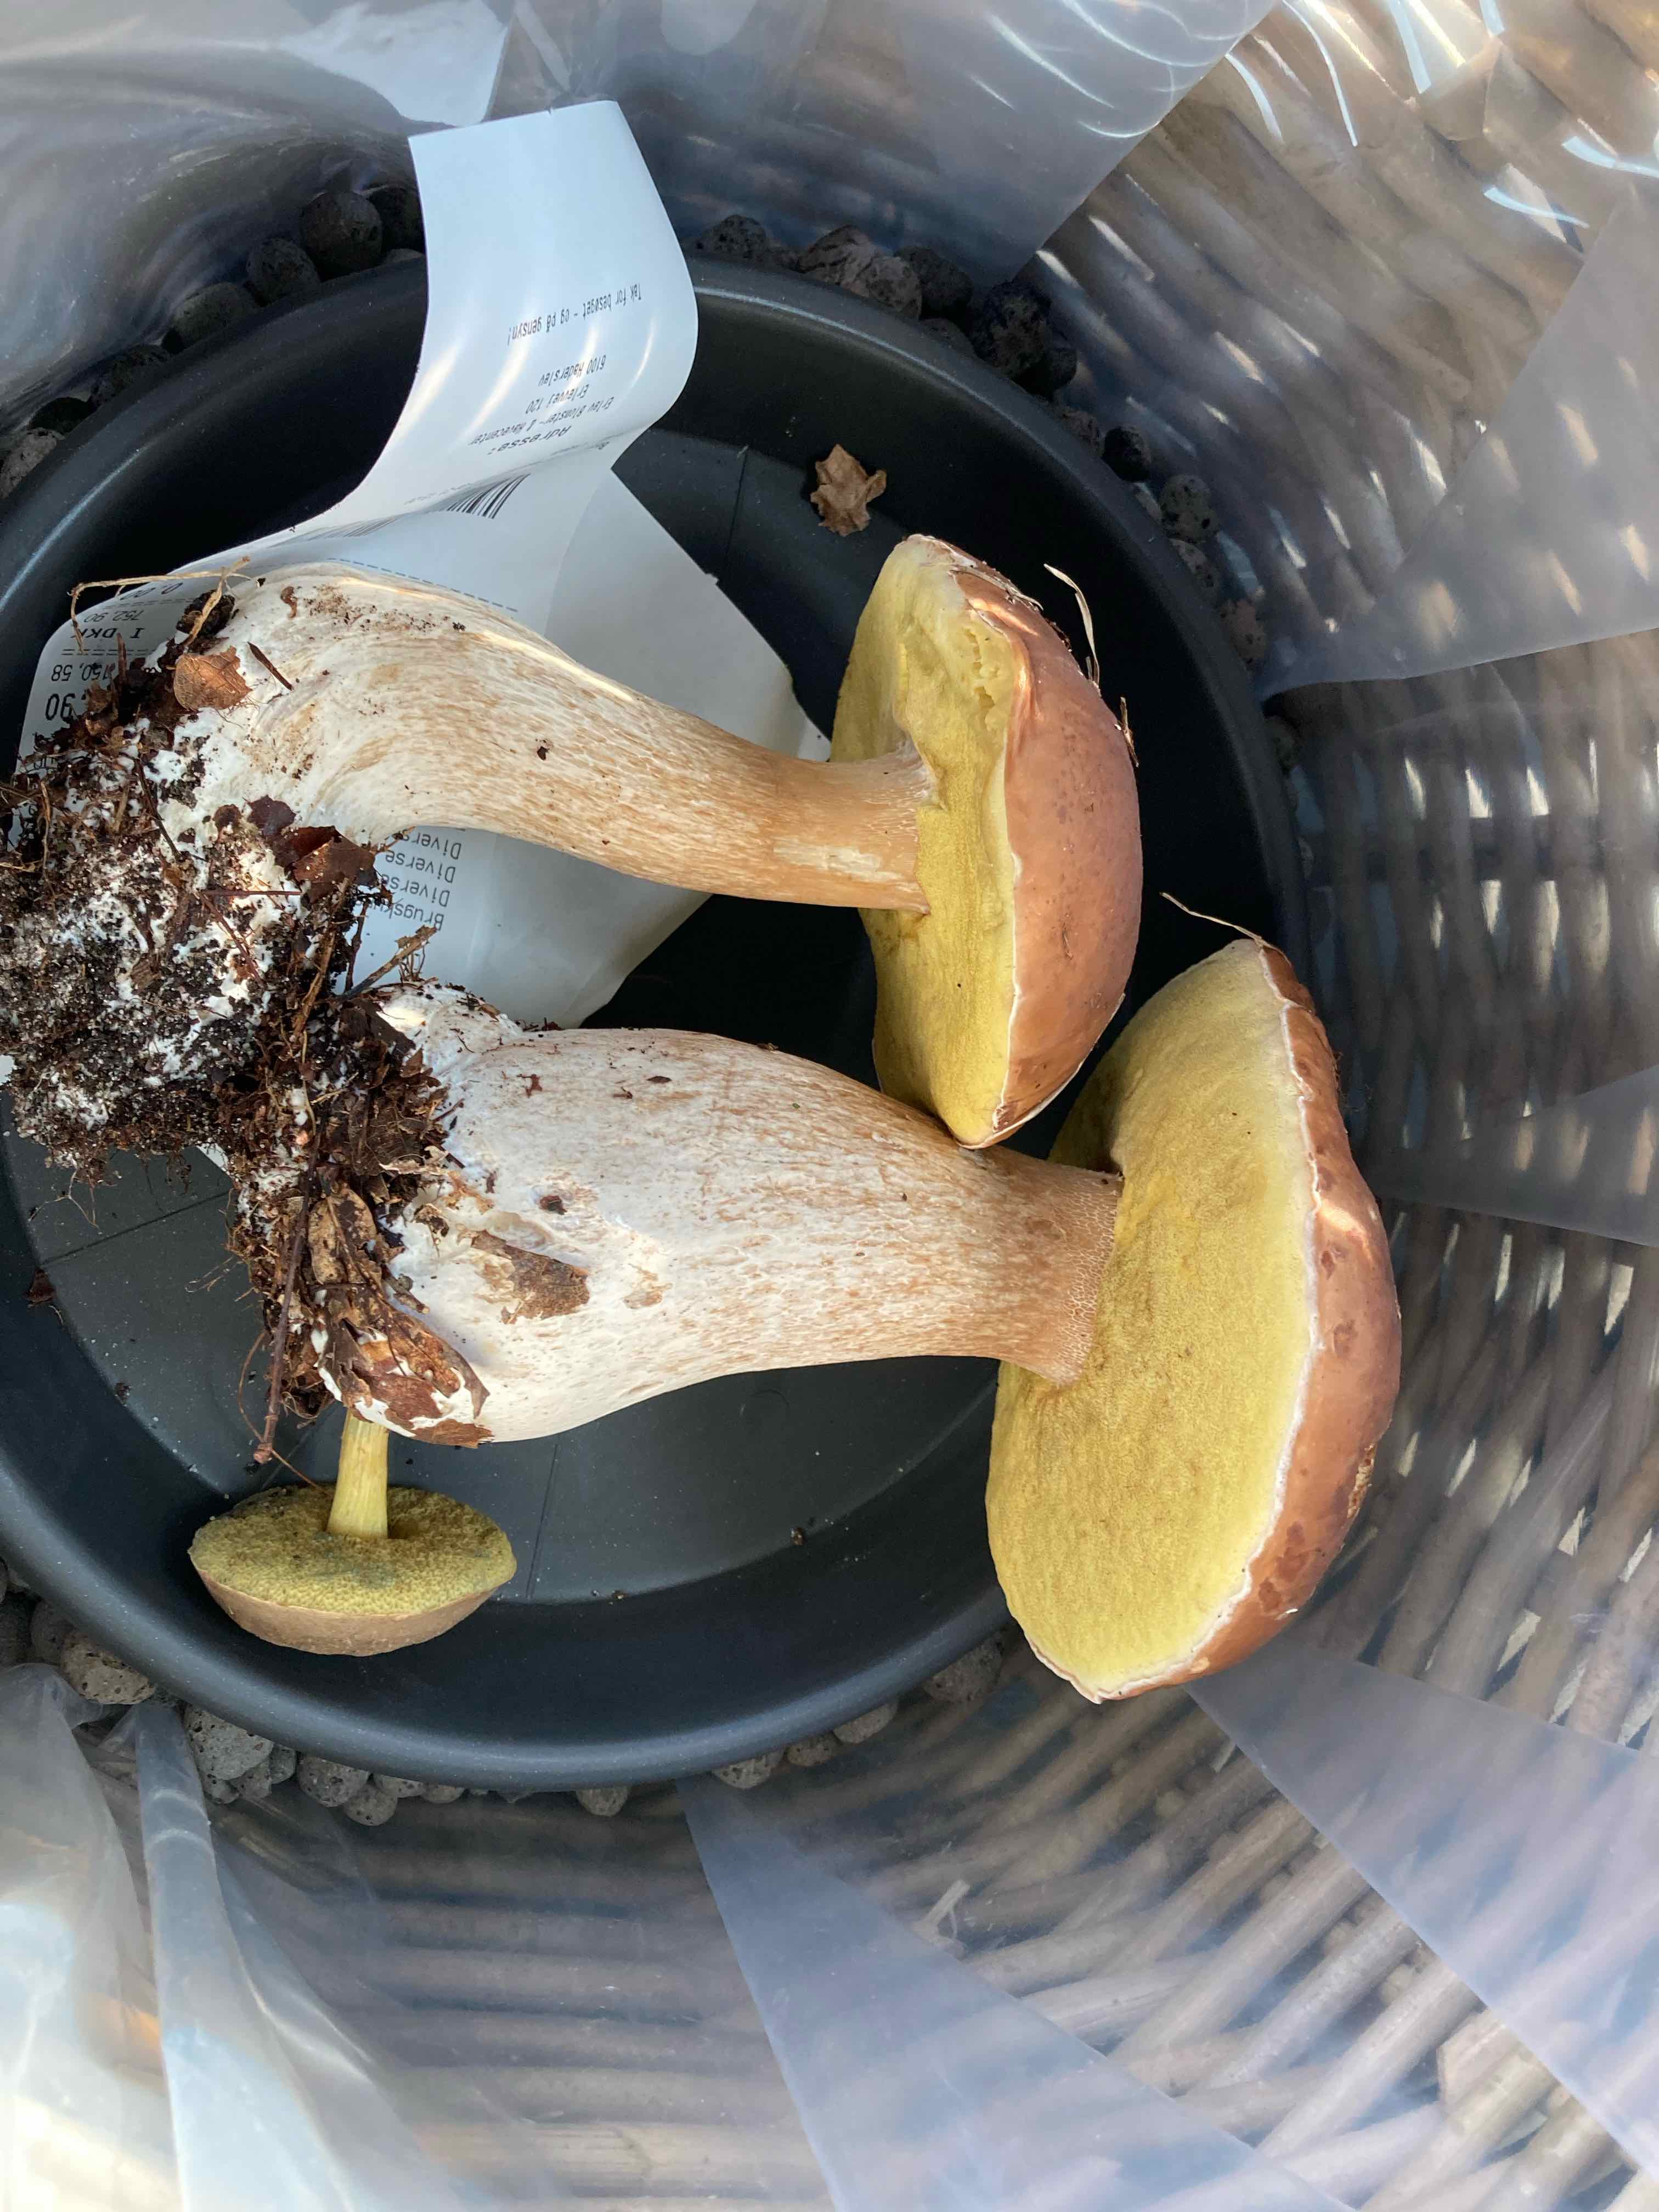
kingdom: Fungi
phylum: Basidiomycota
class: Agaricomycetes
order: Boletales
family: Boletaceae
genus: Boletus
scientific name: Boletus edulis
